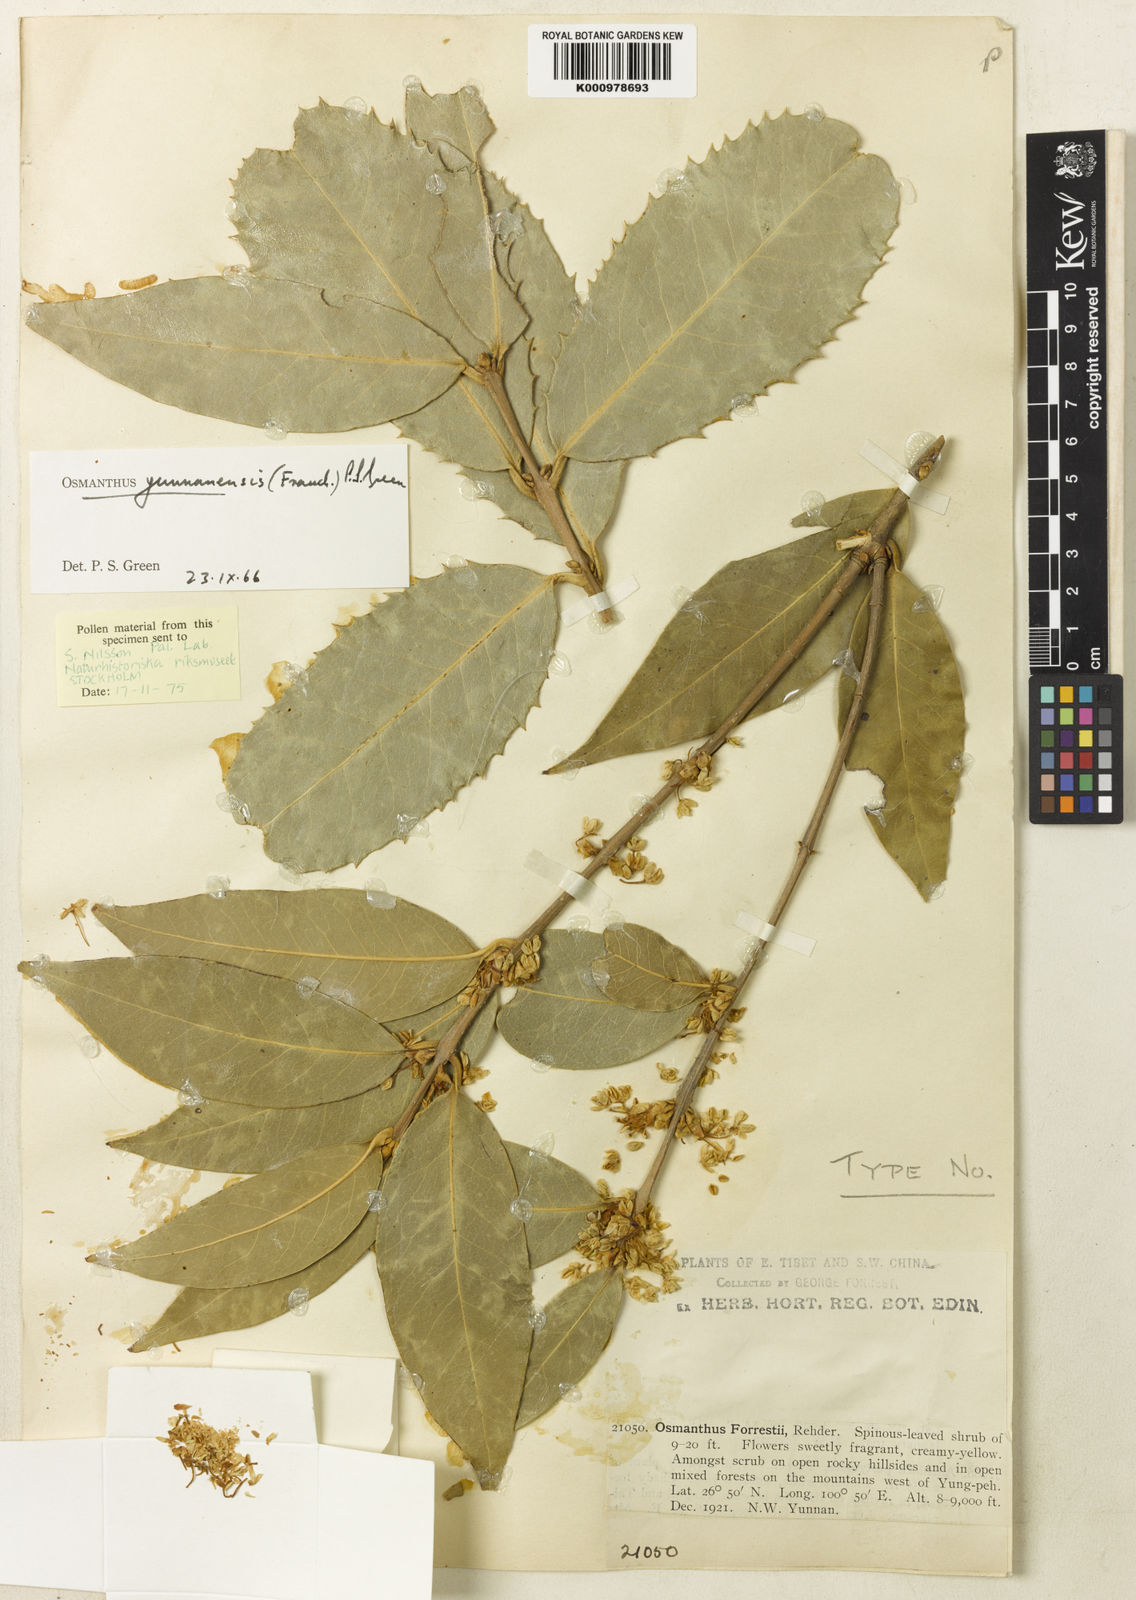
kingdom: Plantae
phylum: Tracheophyta
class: Magnoliopsida
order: Lamiales
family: Oleaceae
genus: Osmanthus
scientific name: Osmanthus yunnanensis
